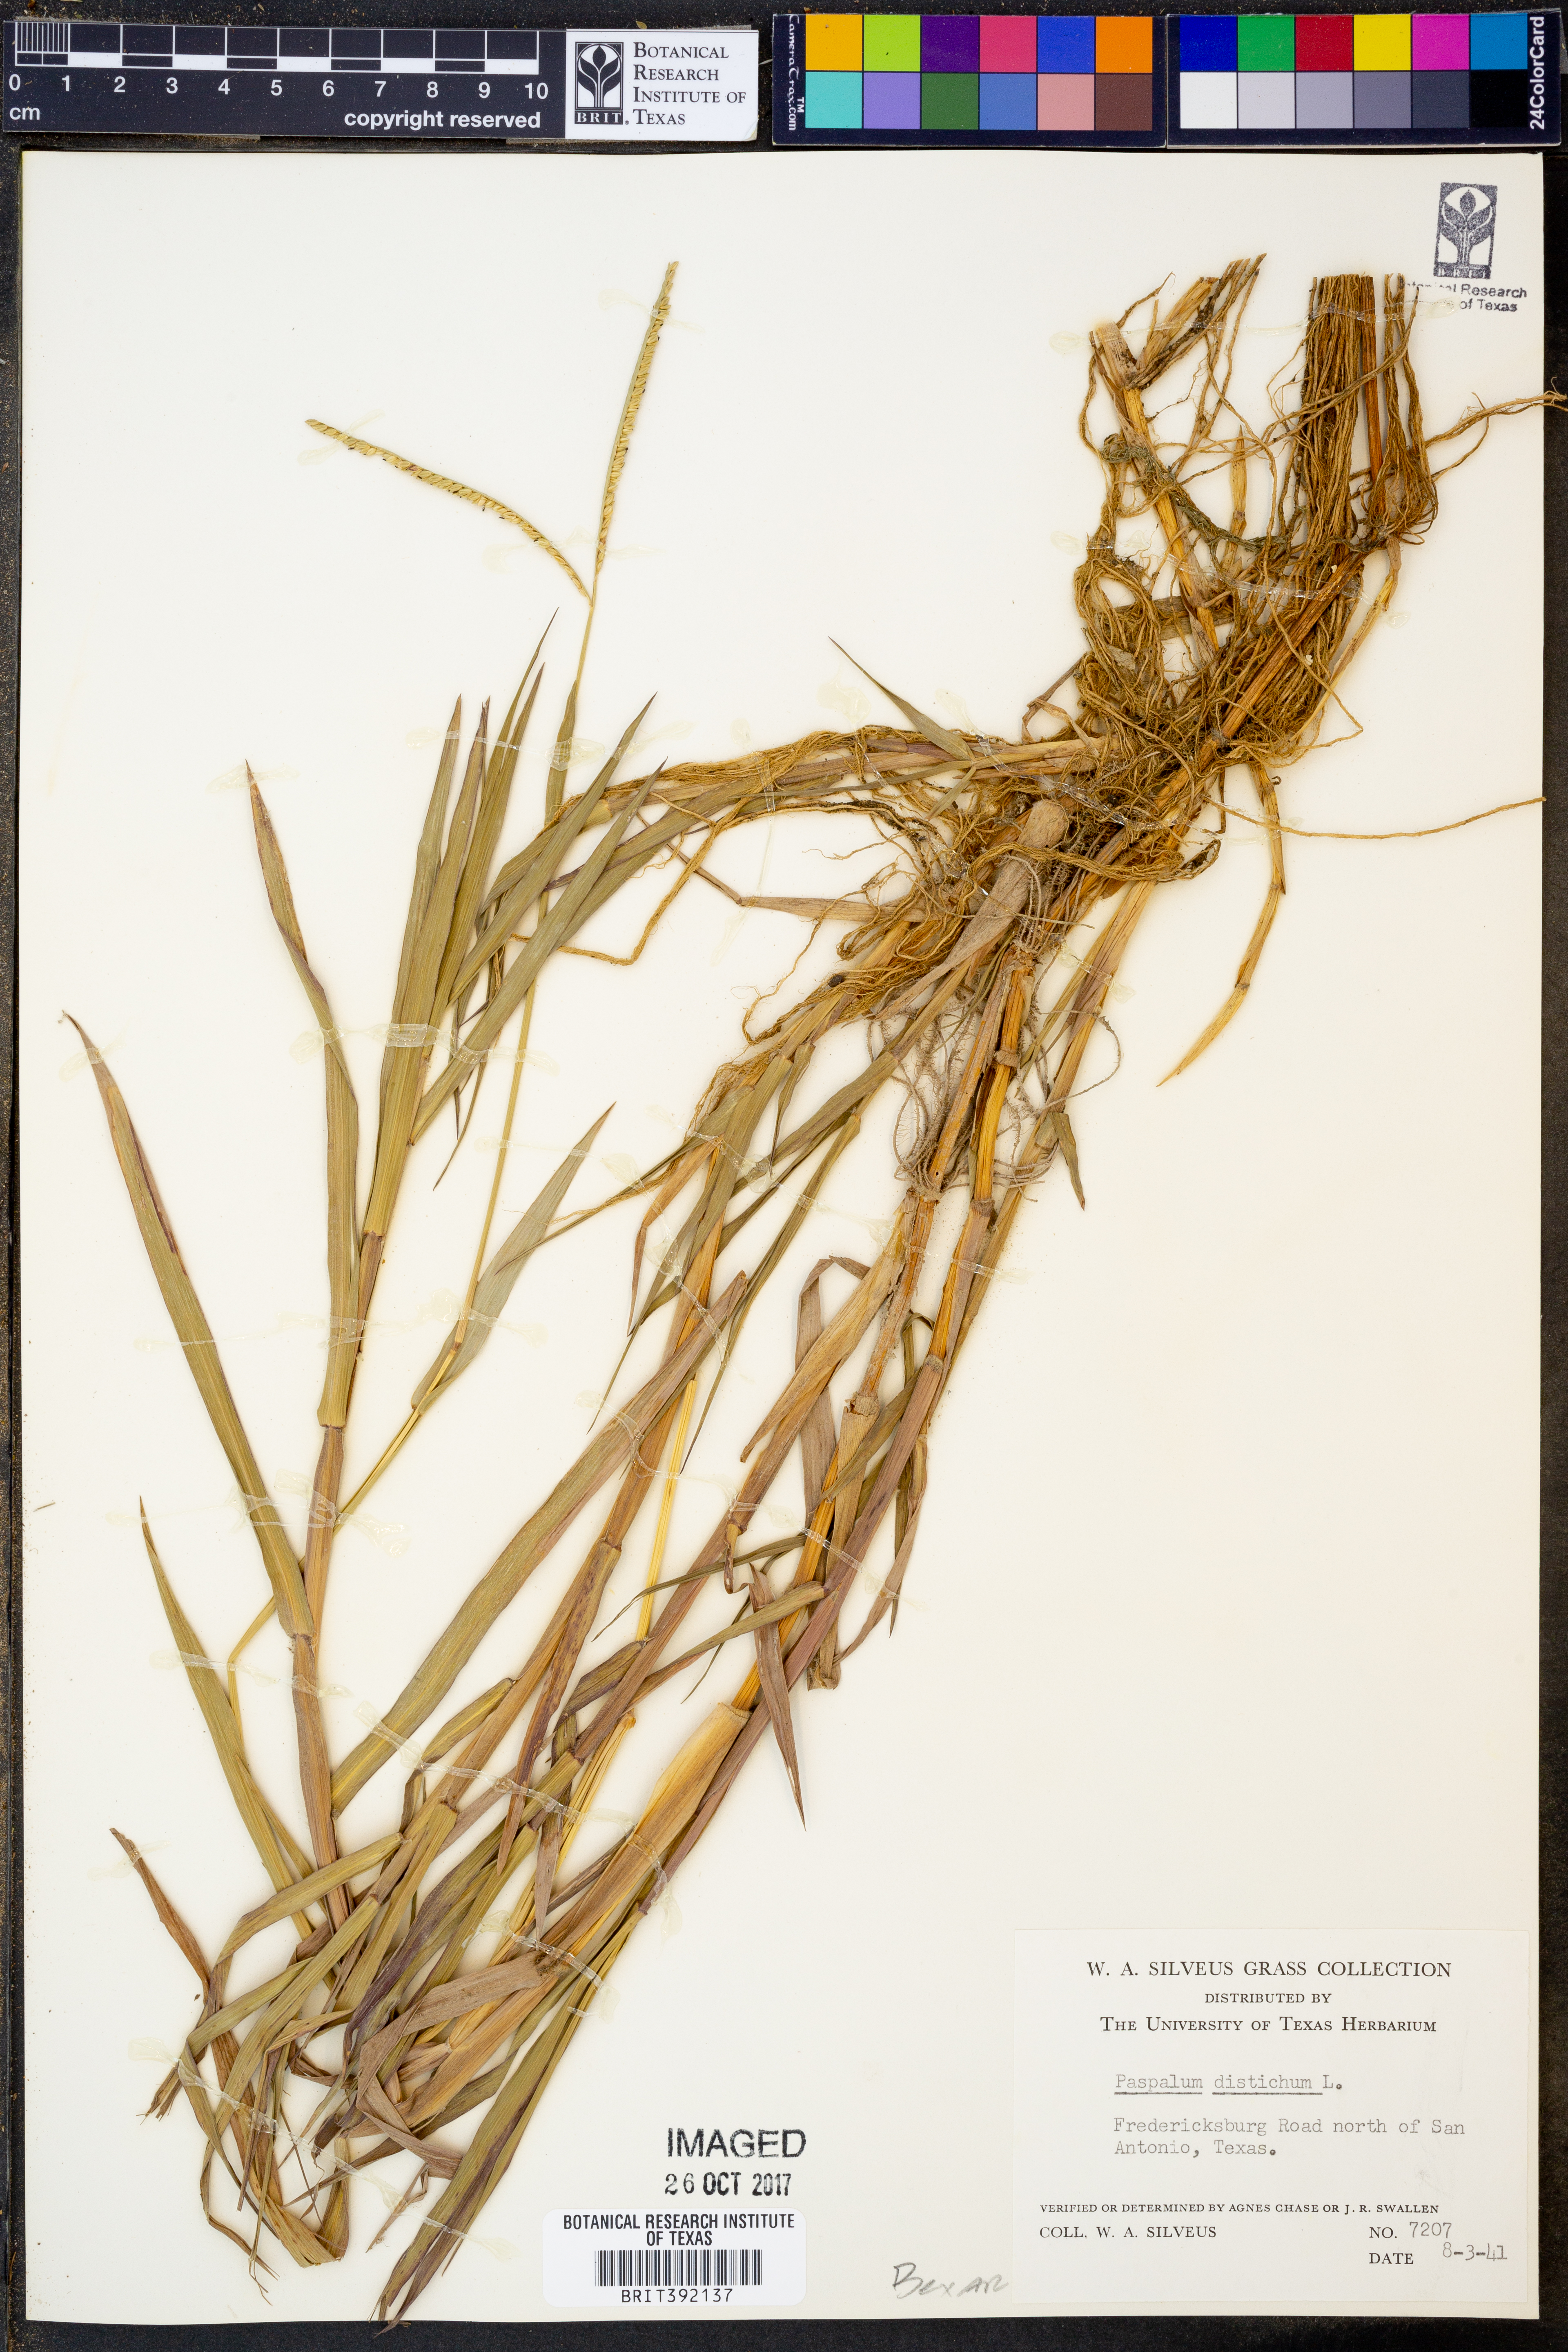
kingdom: Plantae
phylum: Tracheophyta
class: Liliopsida
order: Poales
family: Poaceae
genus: Paspalum
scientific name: Paspalum distichum
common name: Knotgrass
